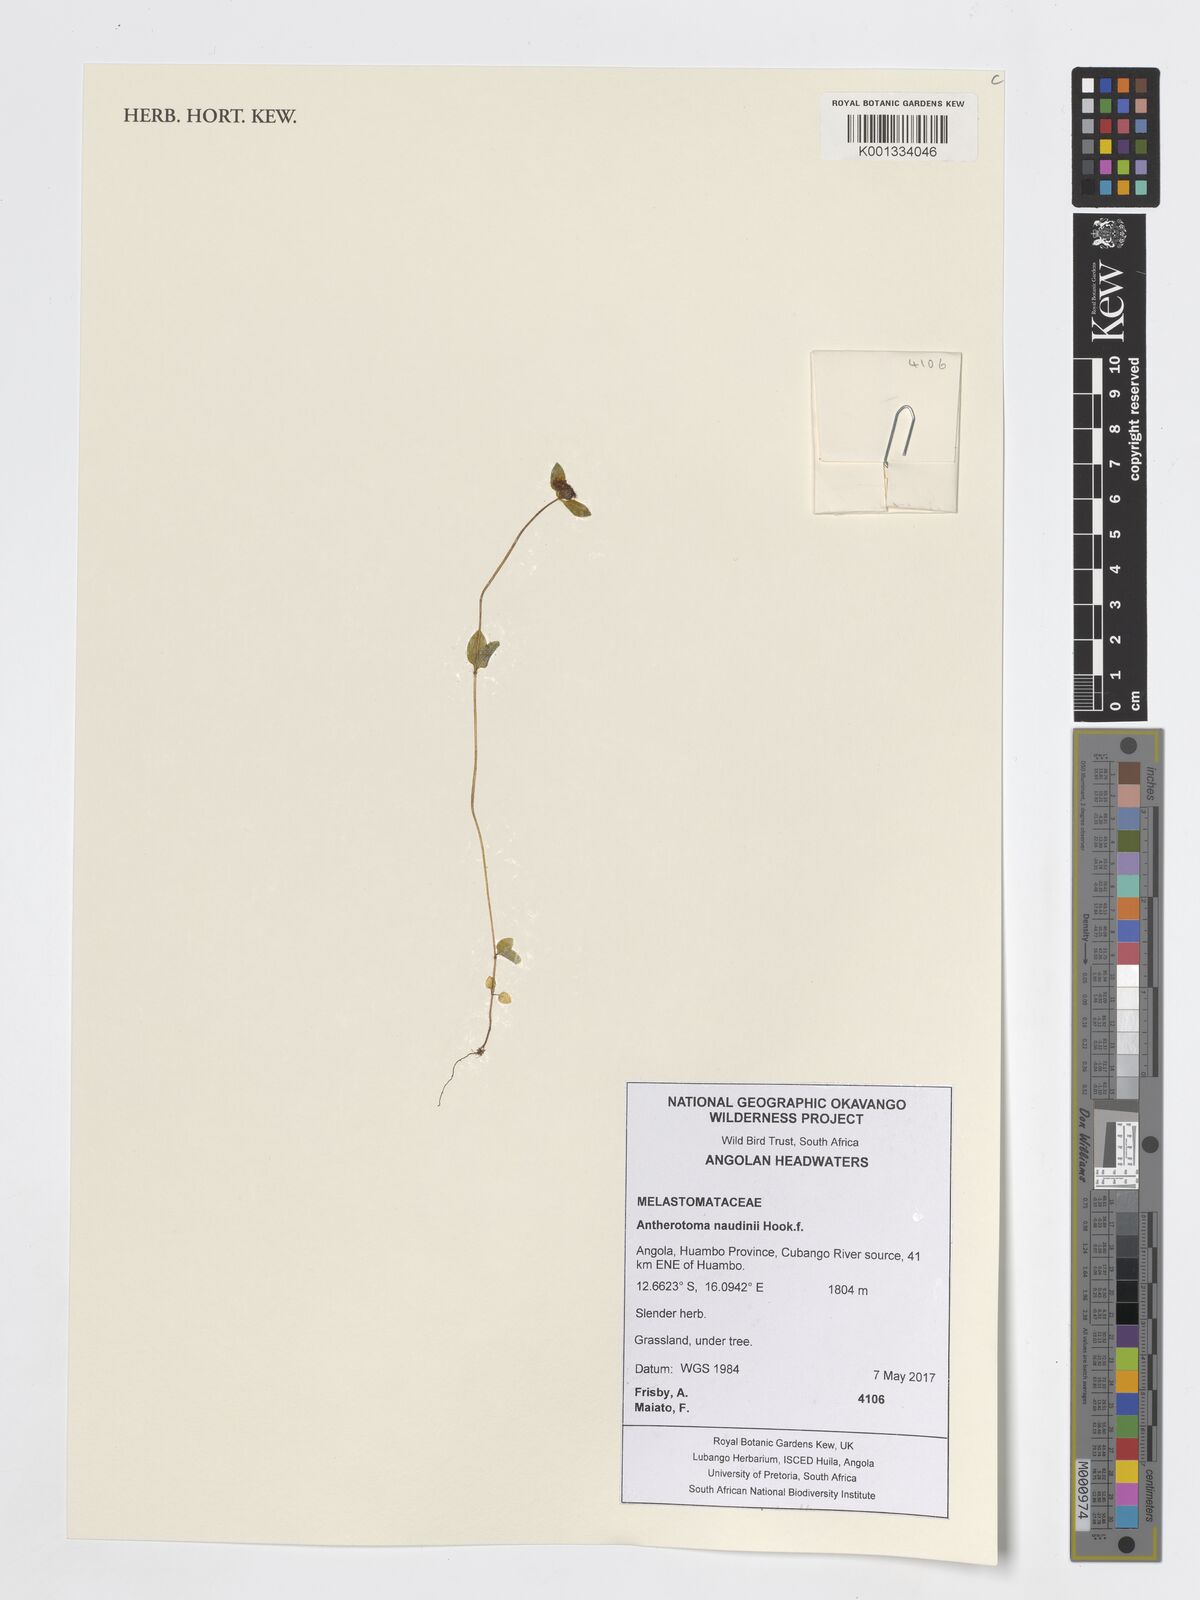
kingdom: Plantae
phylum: Tracheophyta
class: Magnoliopsida
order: Myrtales
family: Melastomataceae
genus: Antherotoma
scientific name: Antherotoma naudinii
